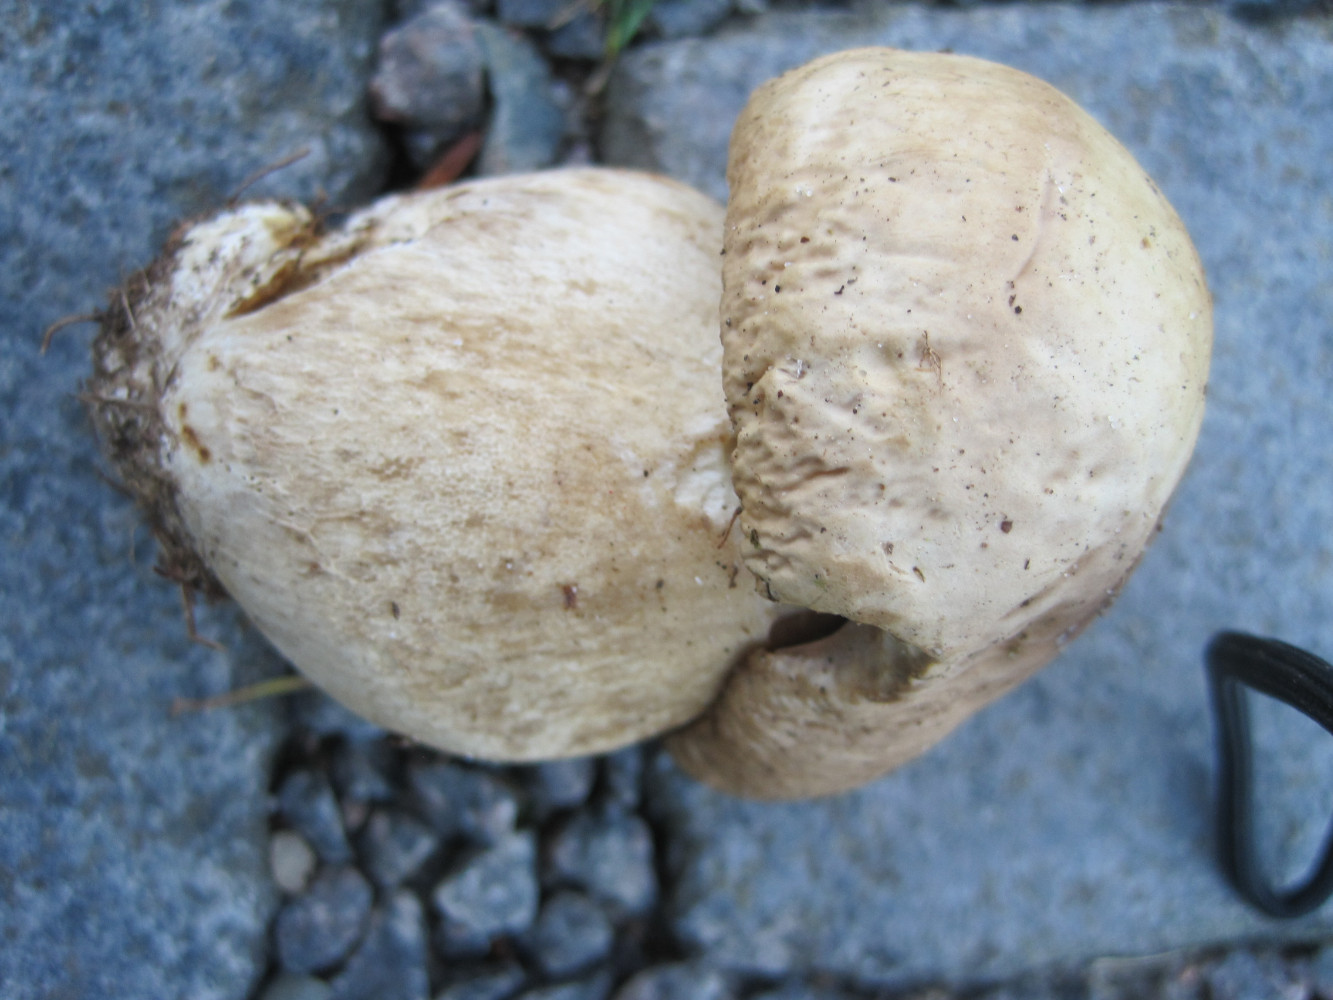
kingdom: Fungi
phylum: Basidiomycota
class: Agaricomycetes
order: Boletales
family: Boletaceae
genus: Boletus
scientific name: Boletus
